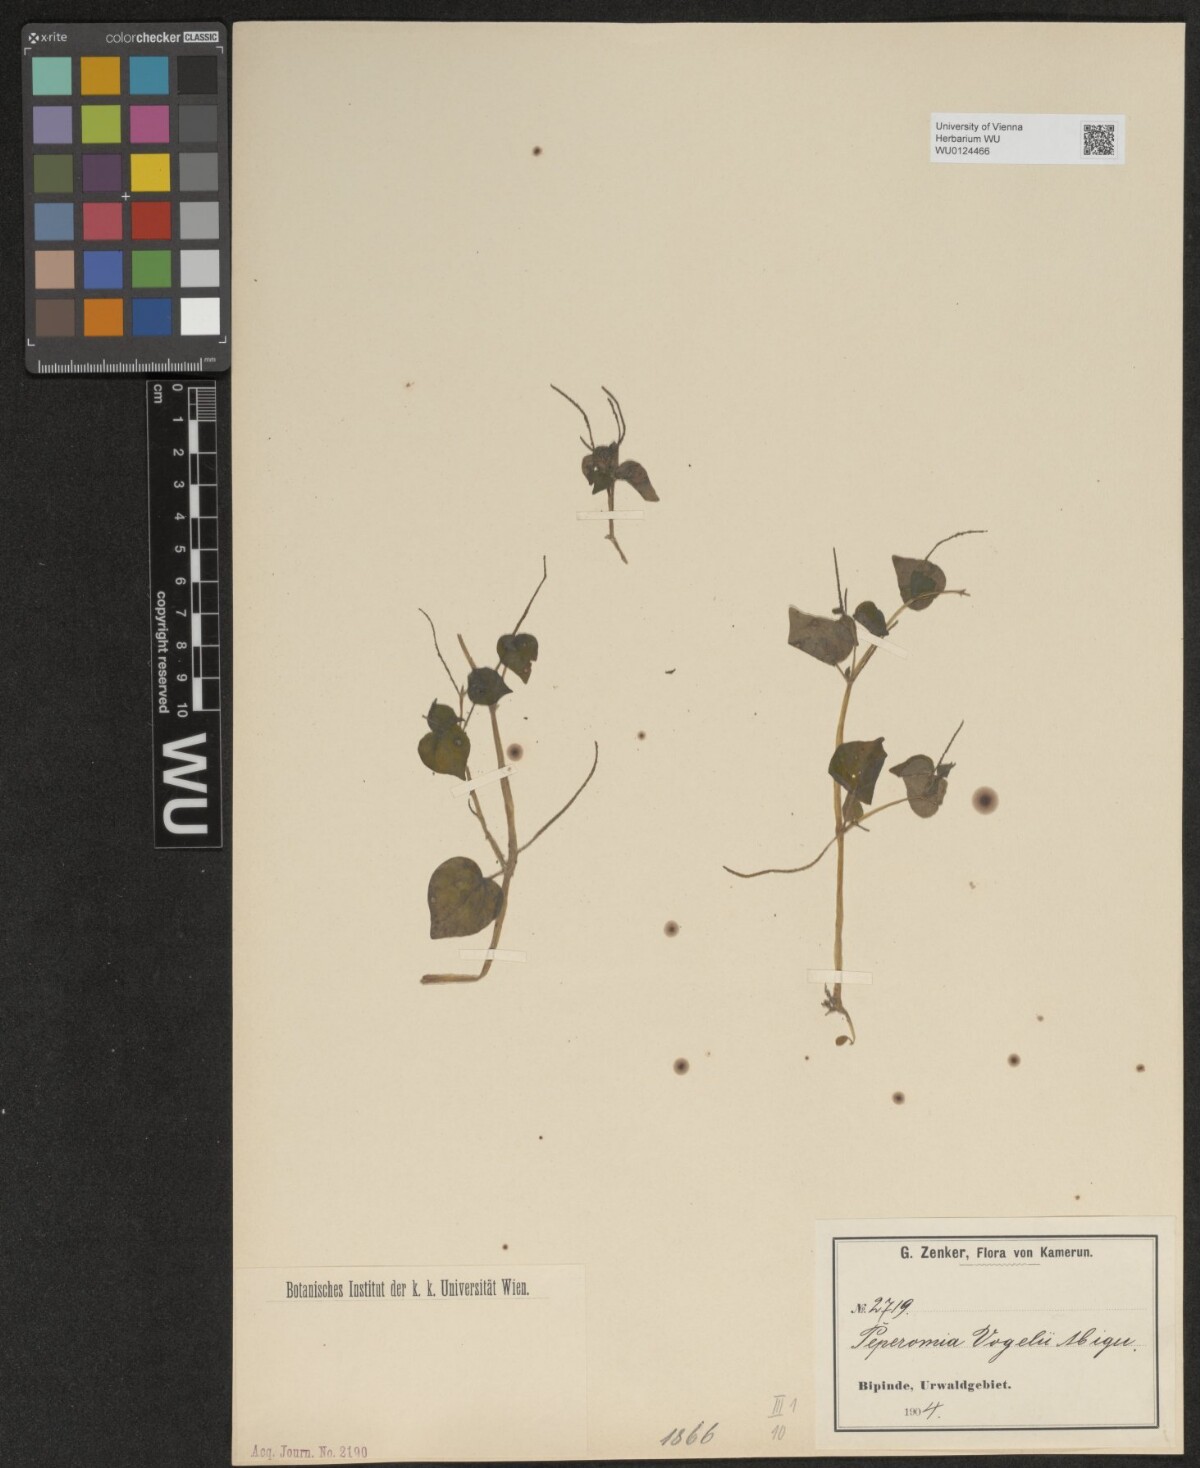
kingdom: Plantae
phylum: Tracheophyta
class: Magnoliopsida
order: Piperales
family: Piperaceae
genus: Peperomia
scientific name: Peperomia pellucida
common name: Man to man
